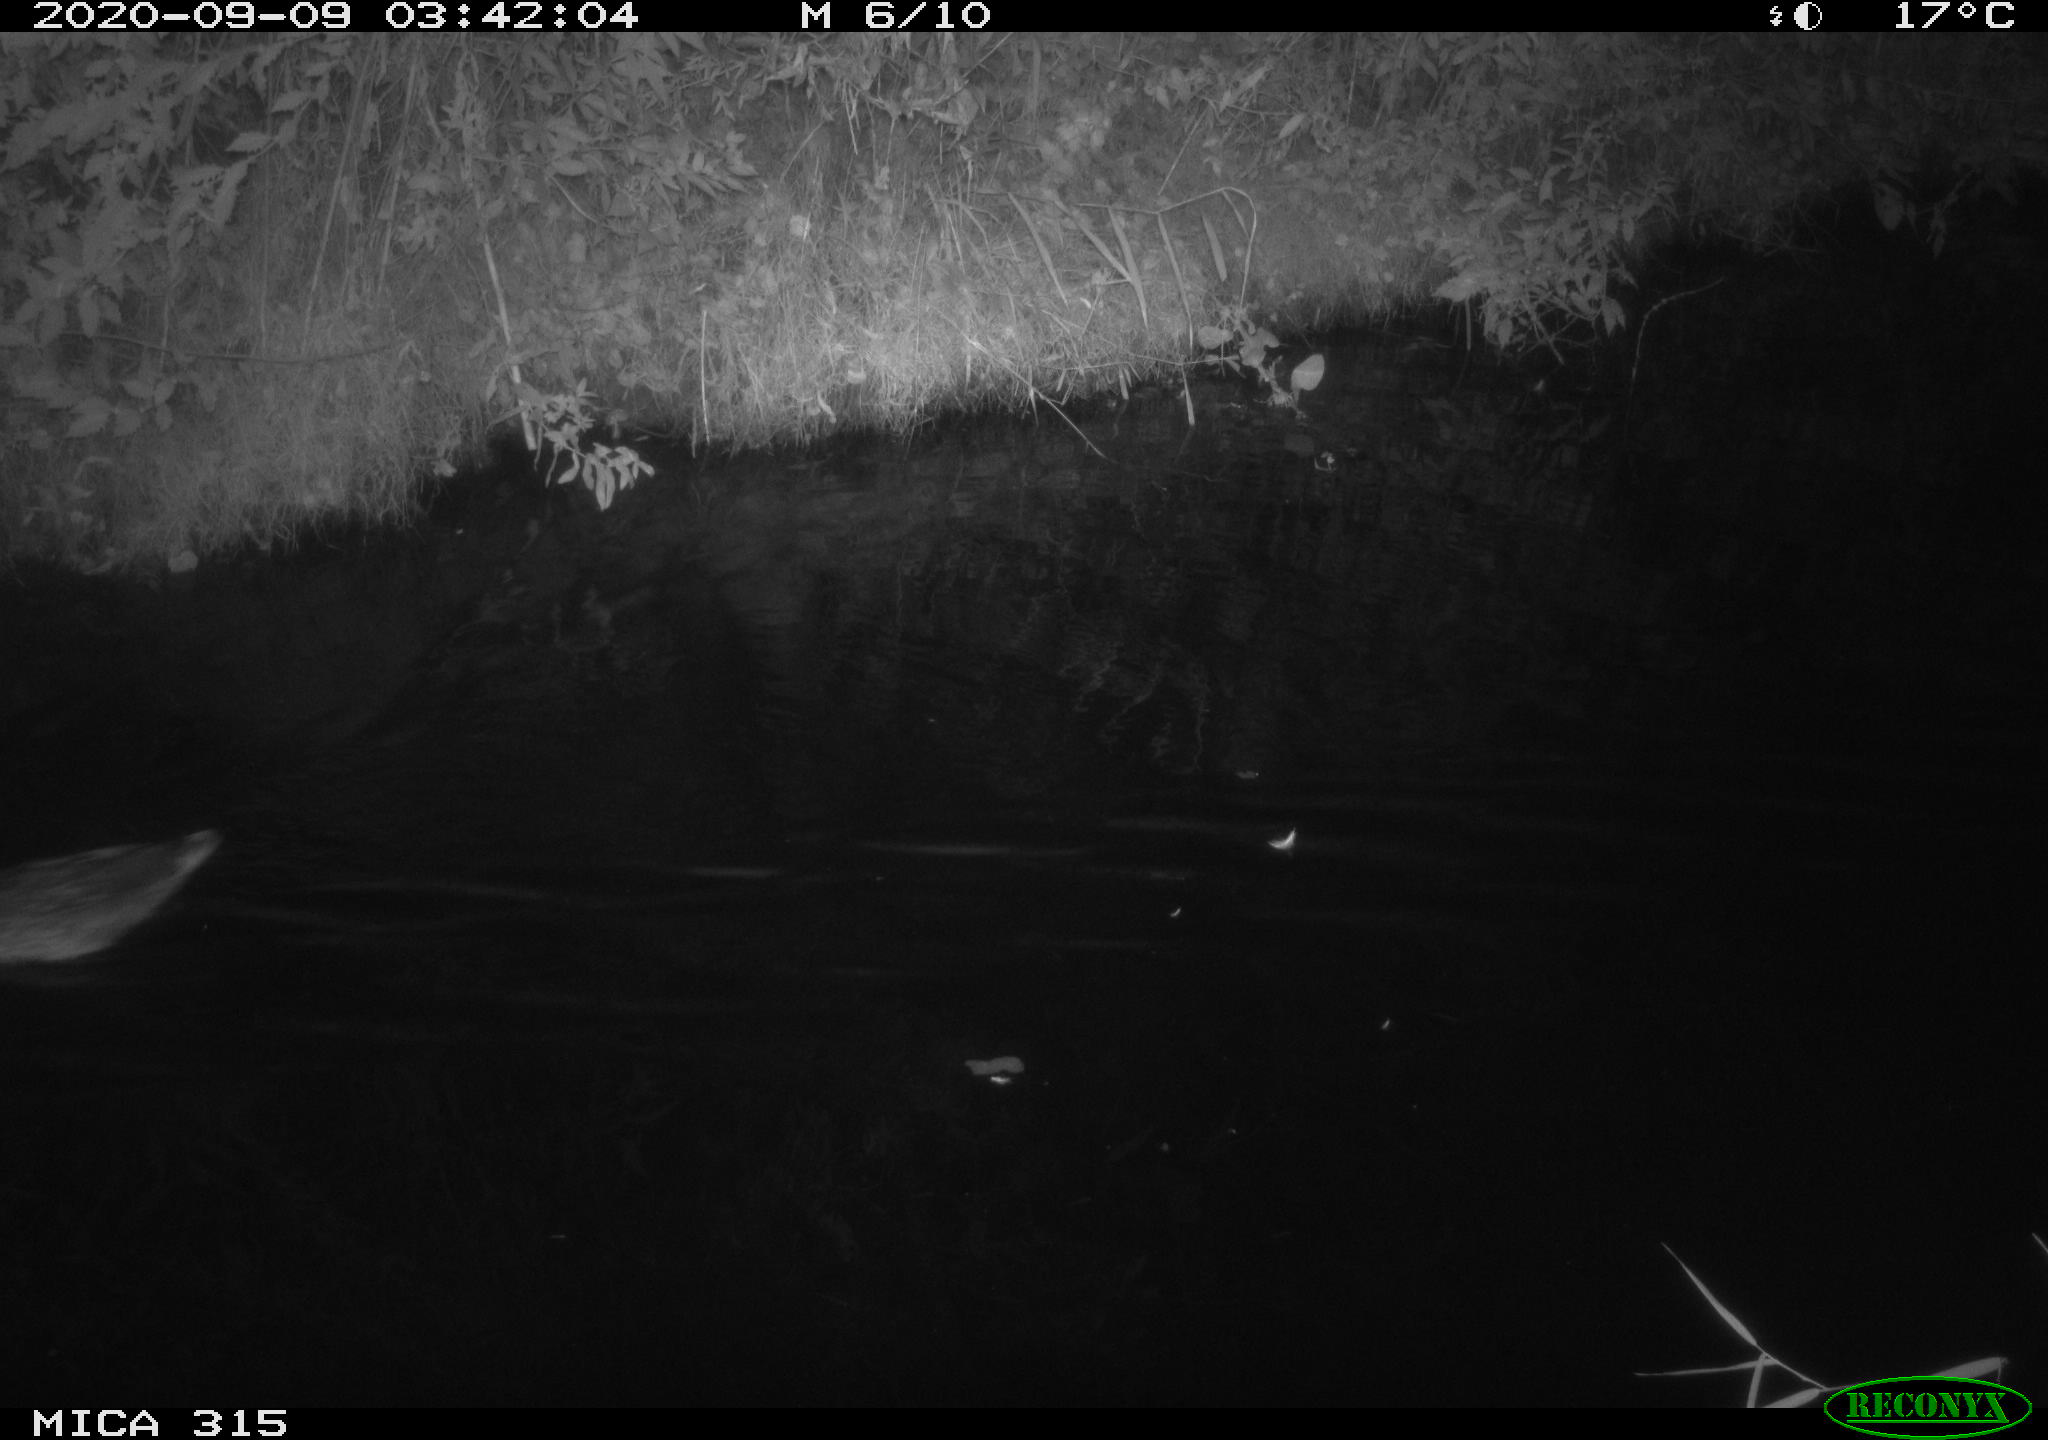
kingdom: Animalia
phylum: Chordata
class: Aves
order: Anseriformes
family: Anatidae
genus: Anas
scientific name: Anas platyrhynchos
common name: Mallard
